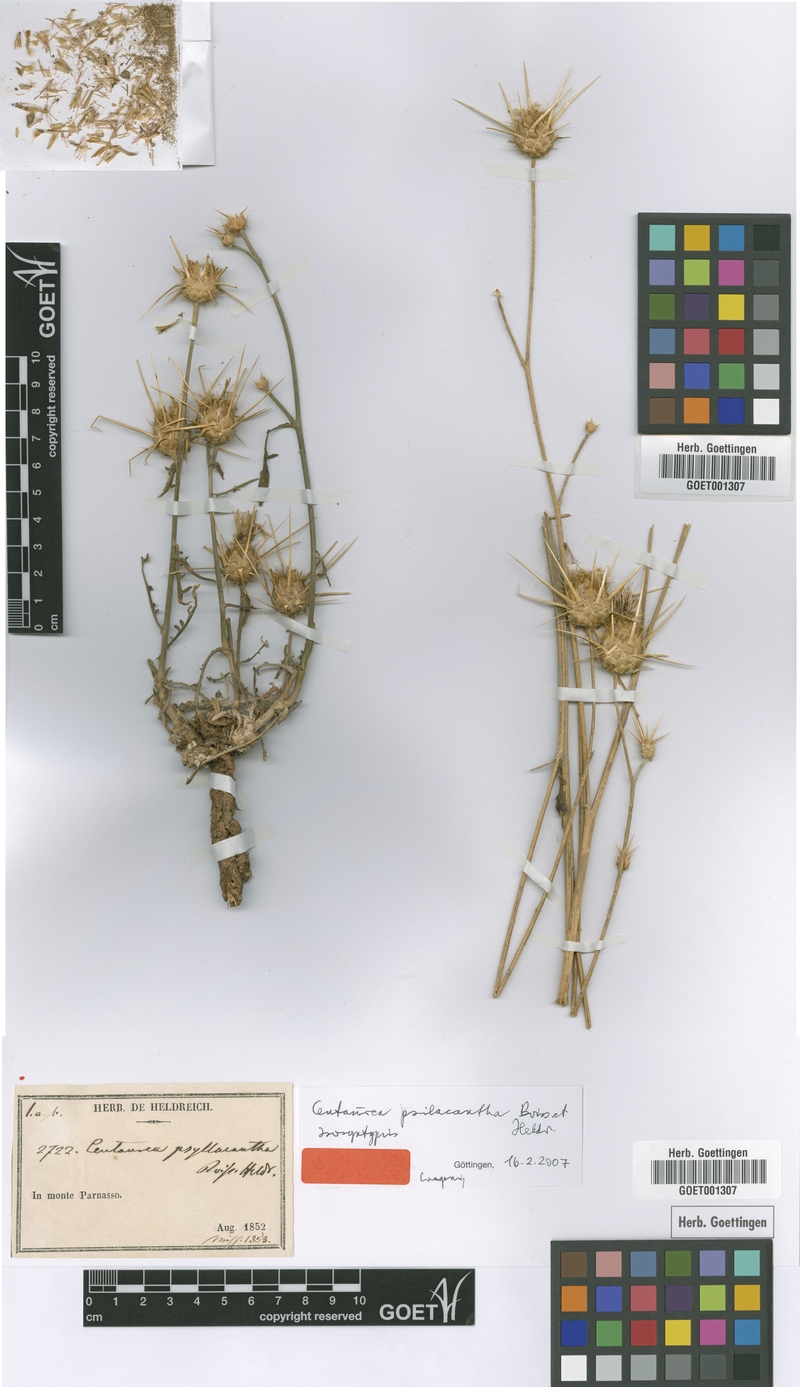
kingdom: Plantae
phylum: Tracheophyta
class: Magnoliopsida
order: Asterales
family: Asteraceae
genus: Centaurea
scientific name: Centaurea psilacantha
